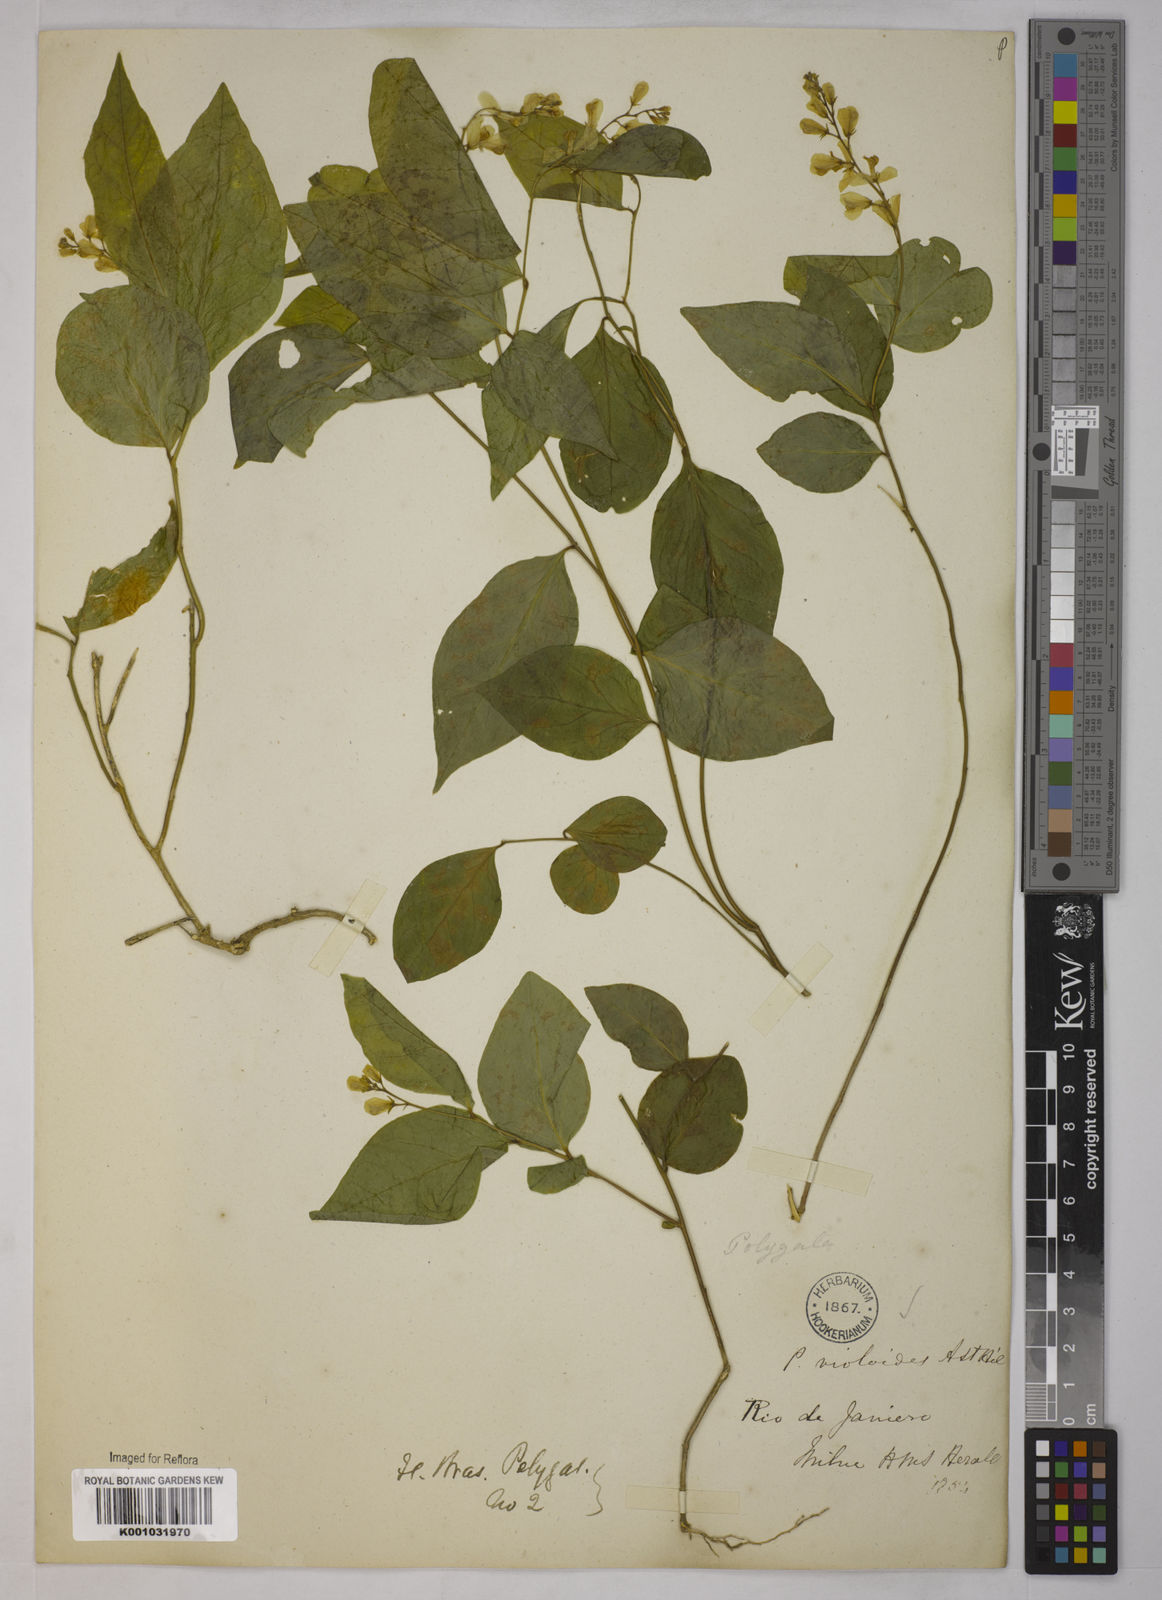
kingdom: Plantae
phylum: Tracheophyta
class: Magnoliopsida
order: Fabales
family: Polygalaceae
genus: Gymnospora
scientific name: Gymnospora violoides
